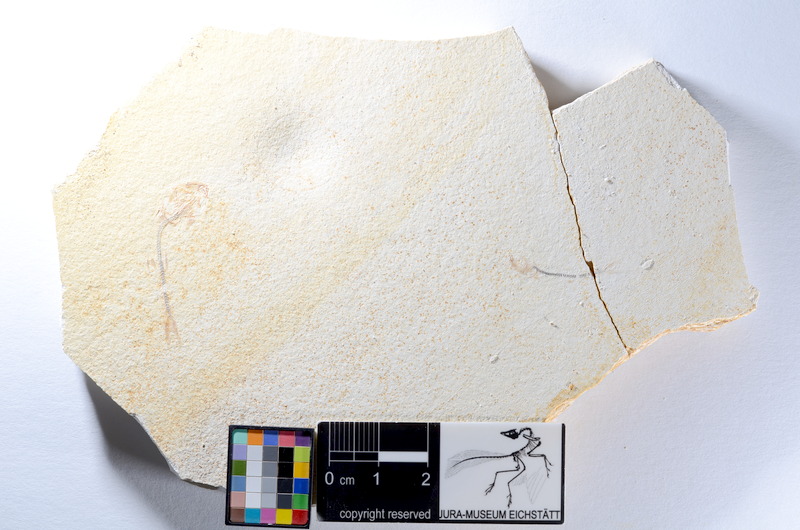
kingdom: Animalia
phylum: Chordata
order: Salmoniformes
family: Orthogonikleithridae
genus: Orthogonikleithrus
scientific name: Orthogonikleithrus hoelli
